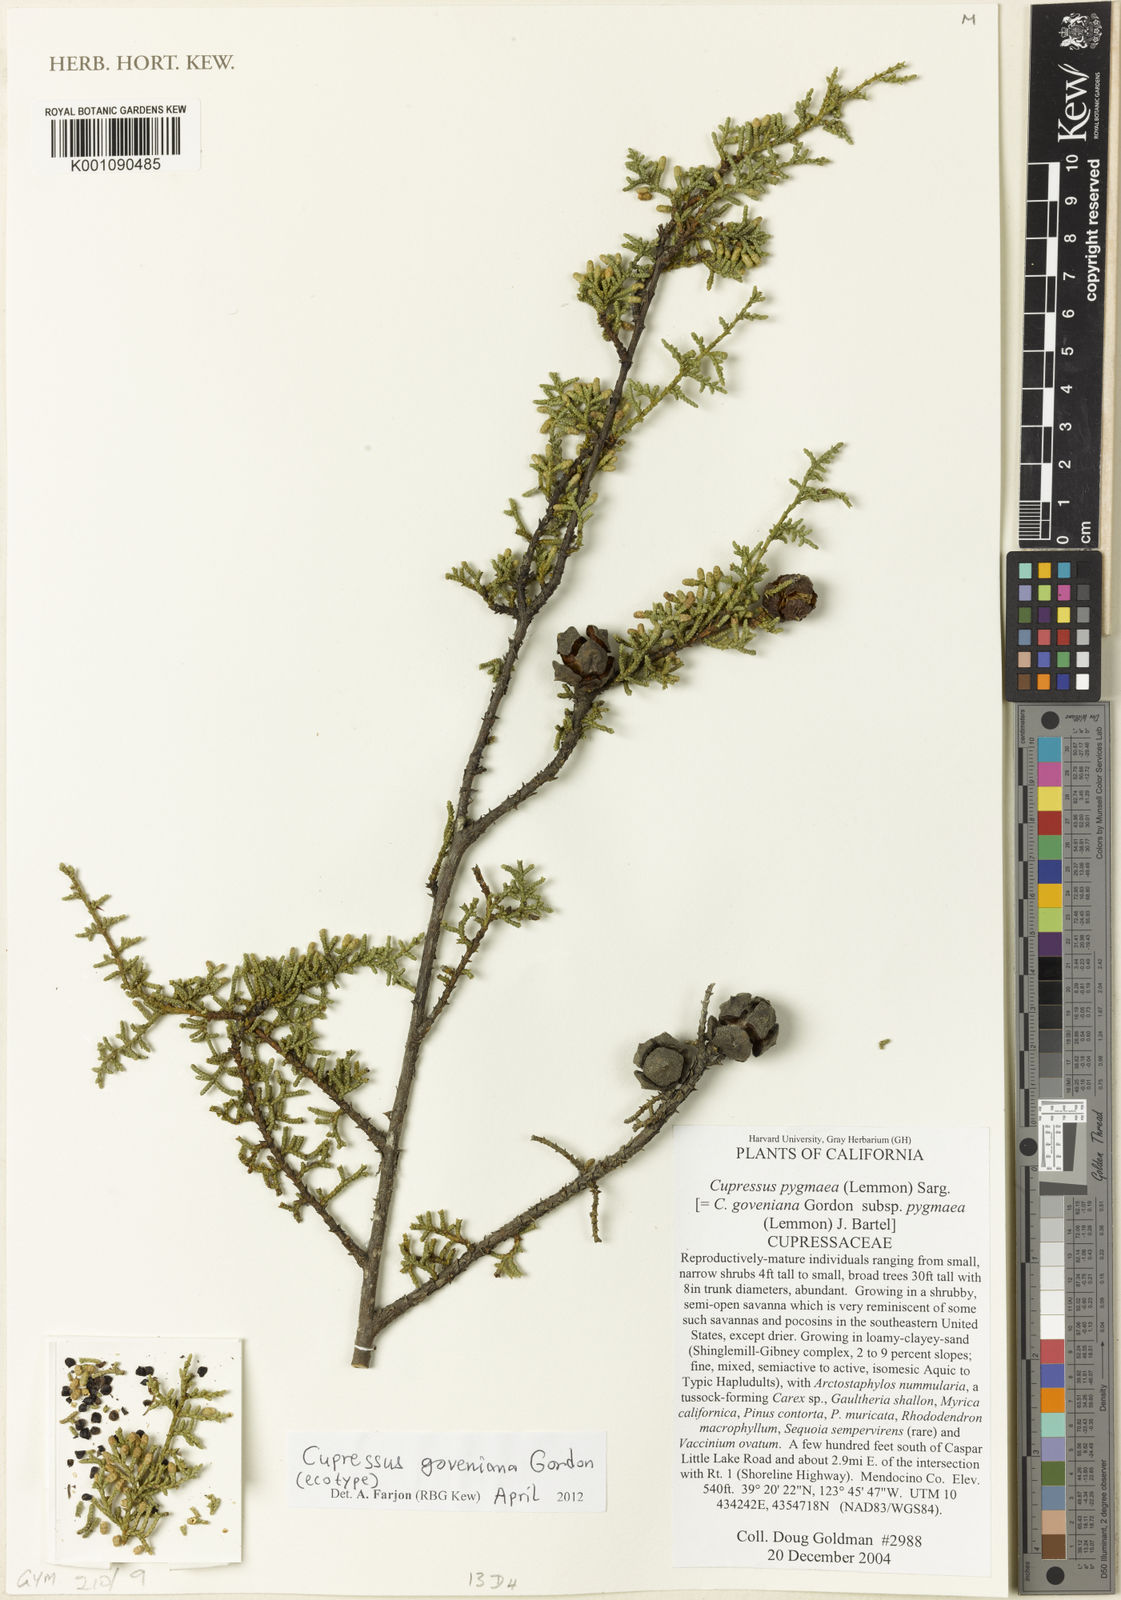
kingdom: Plantae
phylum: Tracheophyta
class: Pinopsida
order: Pinales
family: Cupressaceae
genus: Cupressus
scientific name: Cupressus goveniana
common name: Gowen cypress
